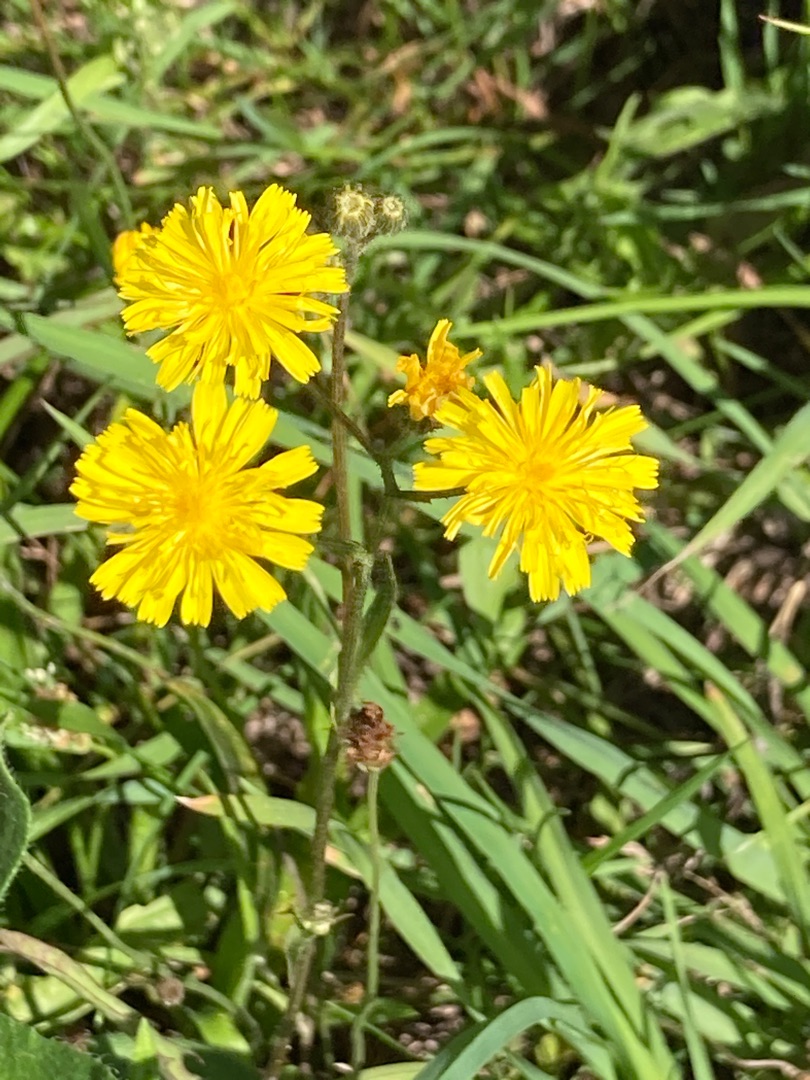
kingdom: Plantae
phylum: Tracheophyta
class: Magnoliopsida
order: Asterales
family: Asteraceae
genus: Crepis
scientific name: Crepis capillaris
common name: Grøn høgeskæg
